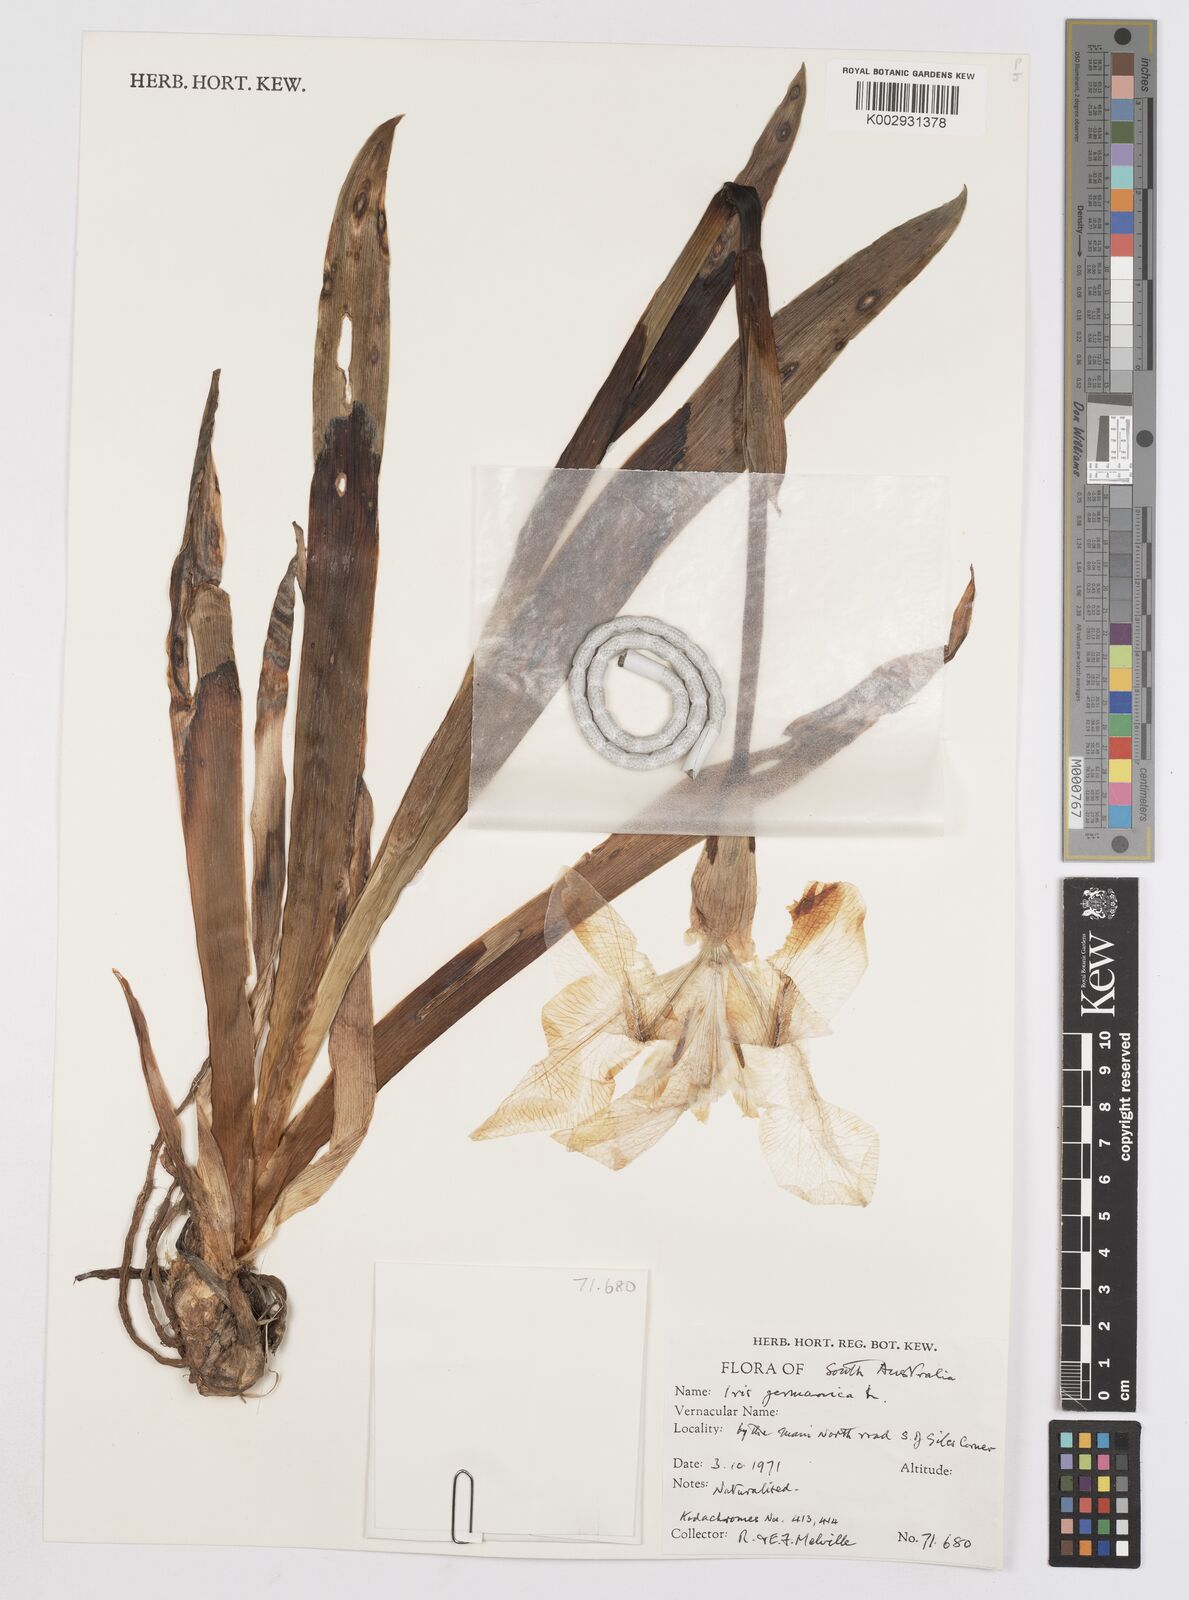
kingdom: Plantae
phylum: Tracheophyta
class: Liliopsida
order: Asparagales
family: Iridaceae
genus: Iris
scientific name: Iris germanica
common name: German iris
